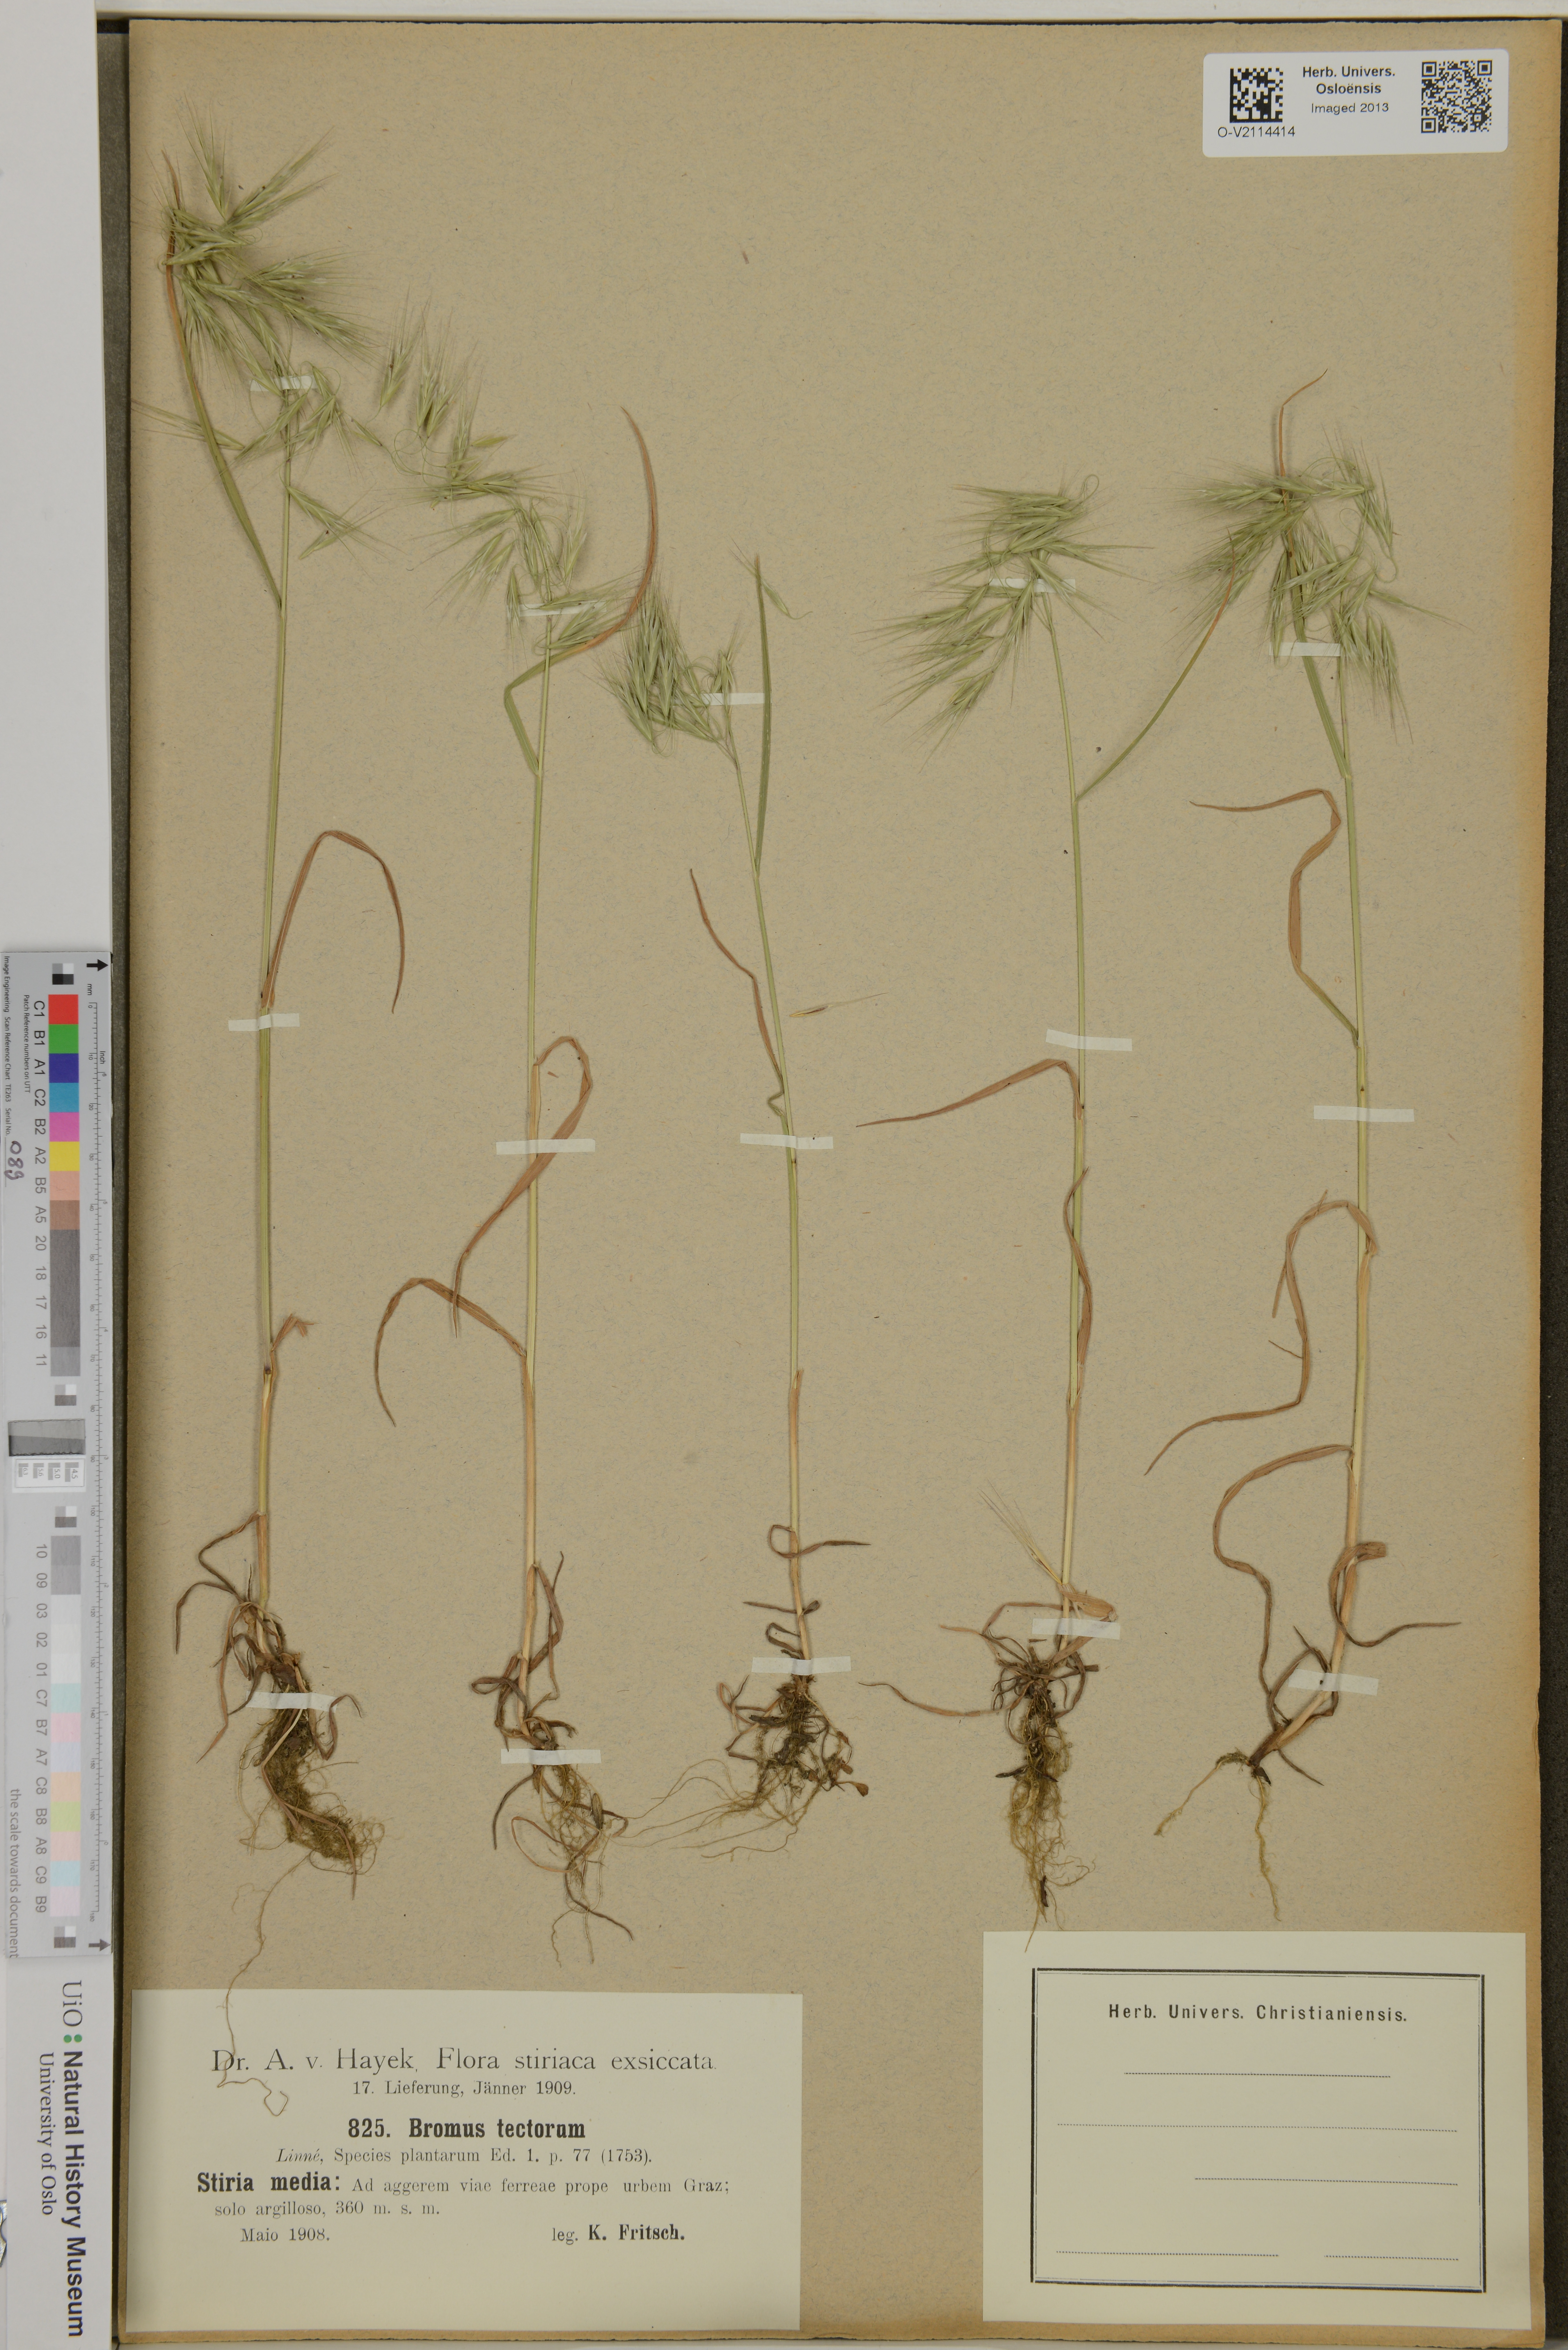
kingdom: Plantae
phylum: Tracheophyta
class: Liliopsida
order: Poales
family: Poaceae
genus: Bromus
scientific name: Bromus tectorum
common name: Cheatgrass
